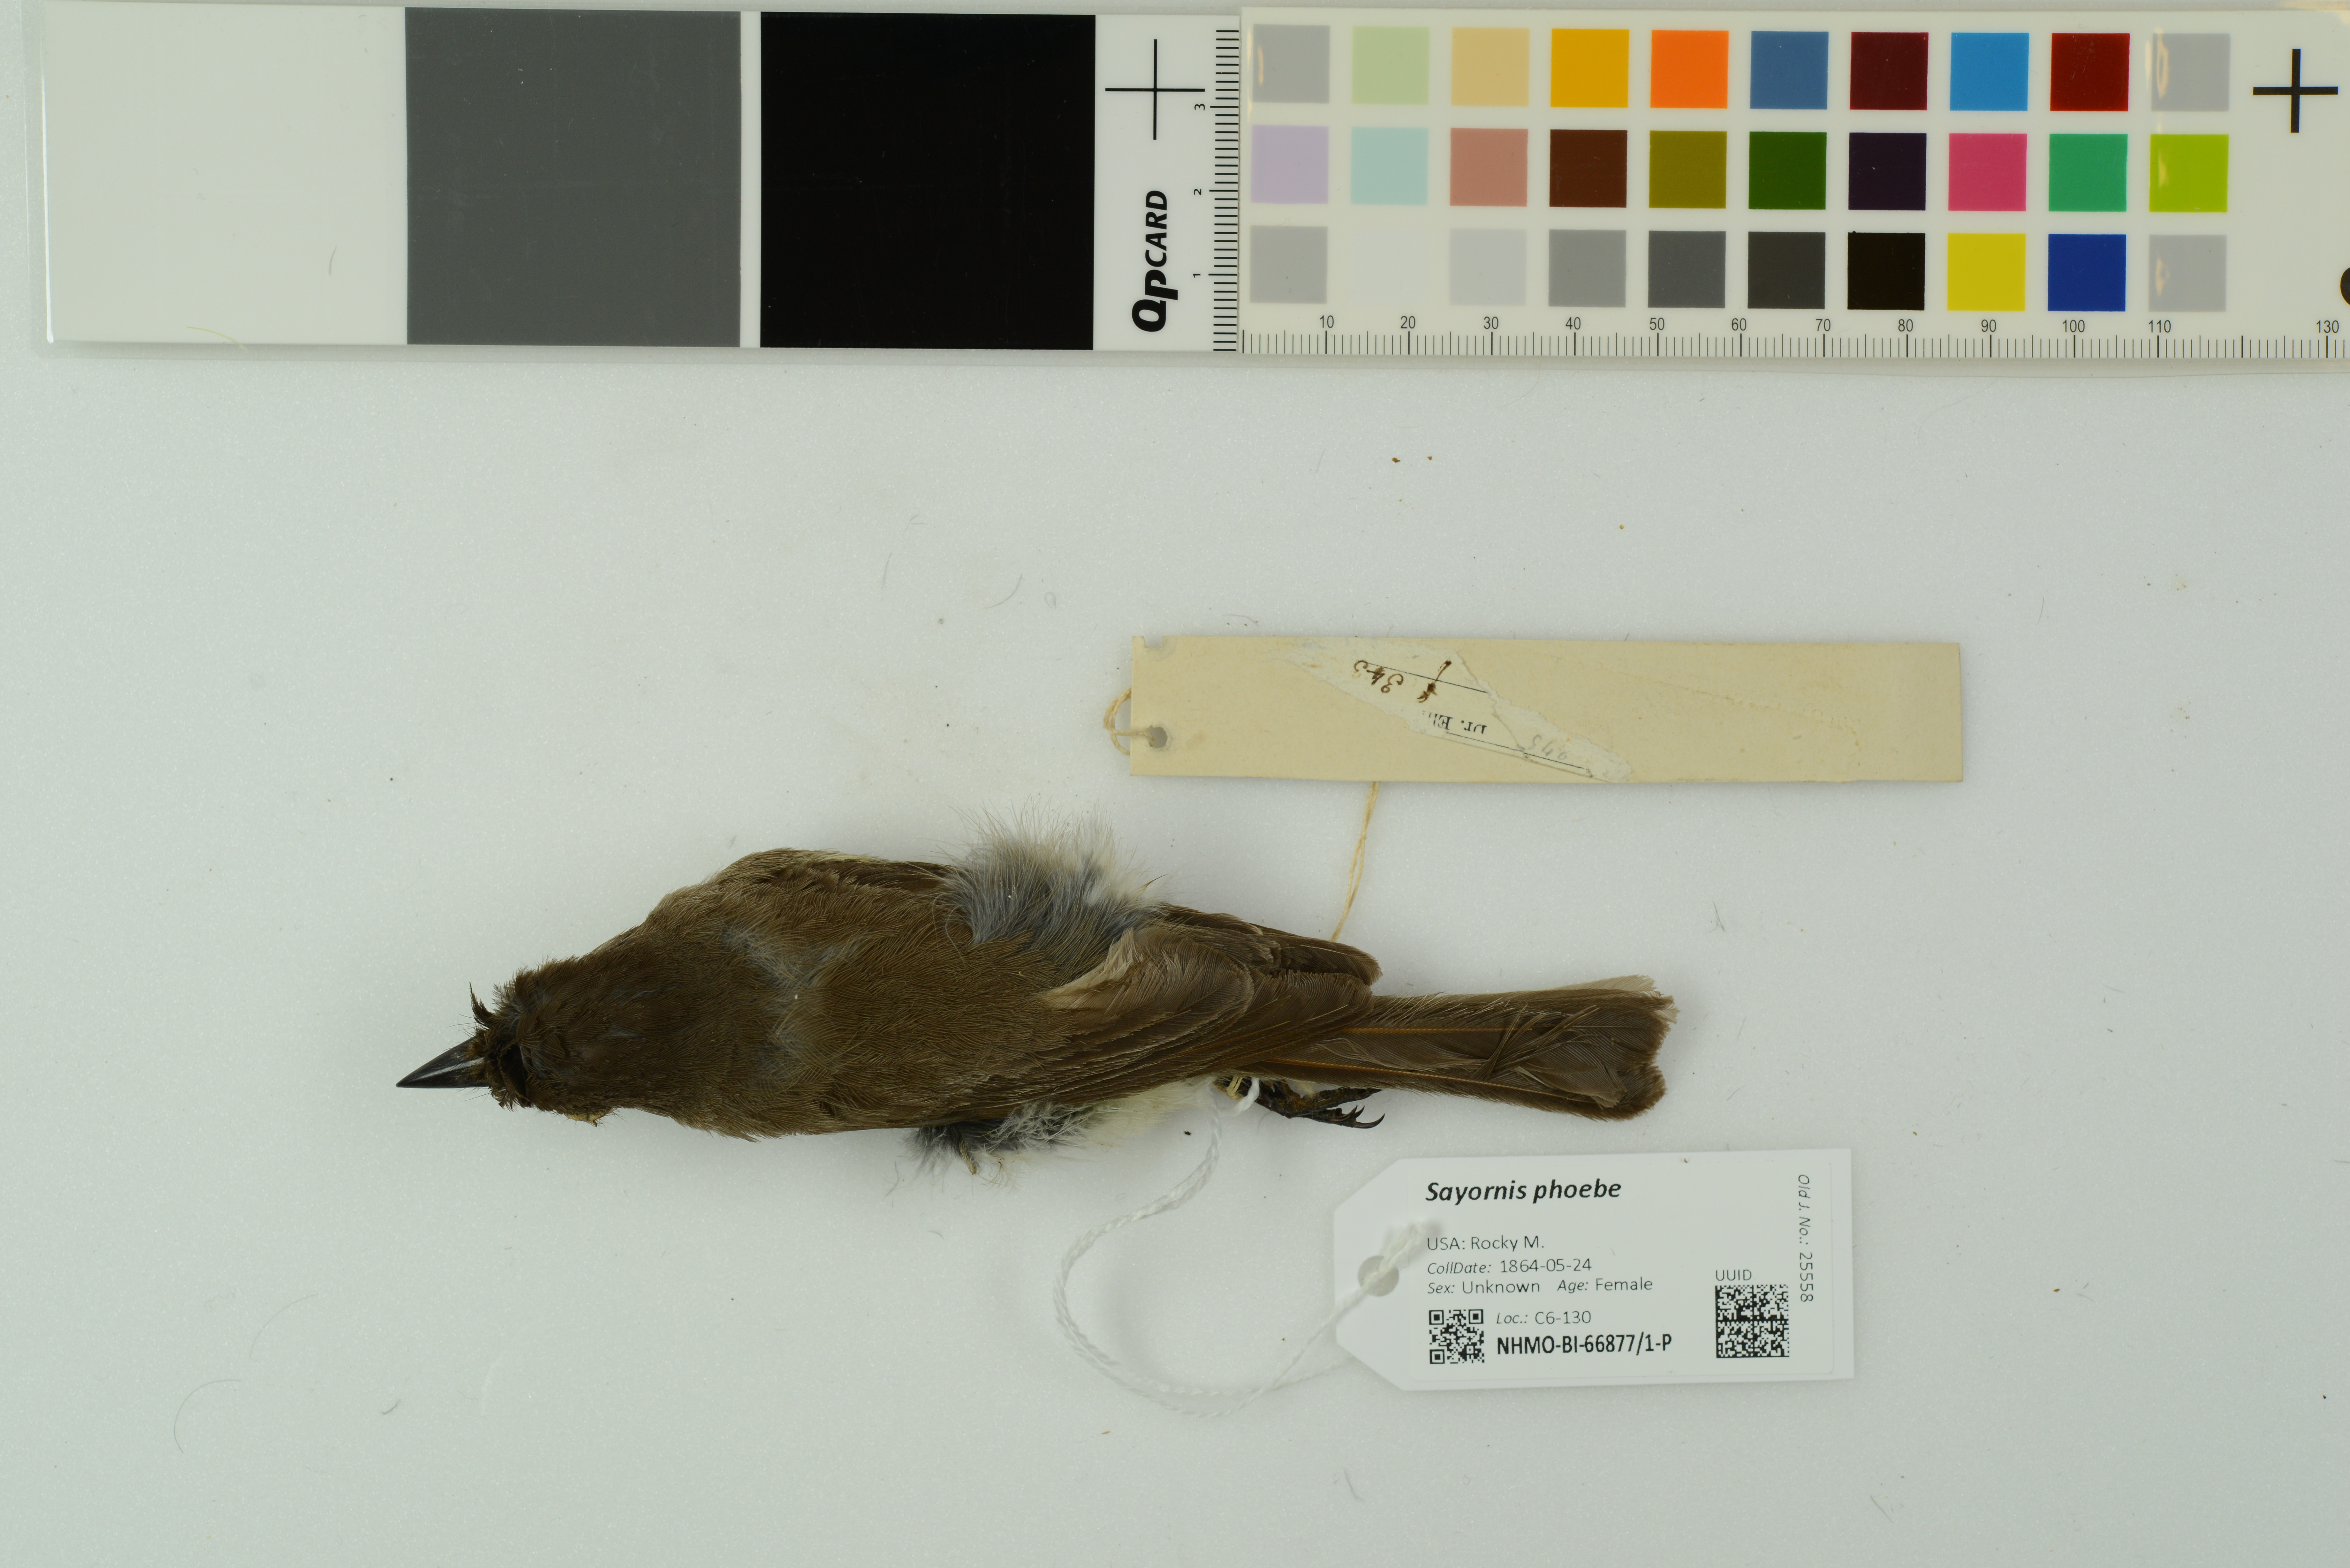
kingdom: Animalia
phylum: Chordata
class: Aves
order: Passeriformes
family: Tyrannidae
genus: Sayornis
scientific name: Sayornis phoebe
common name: Eastern phoebe
